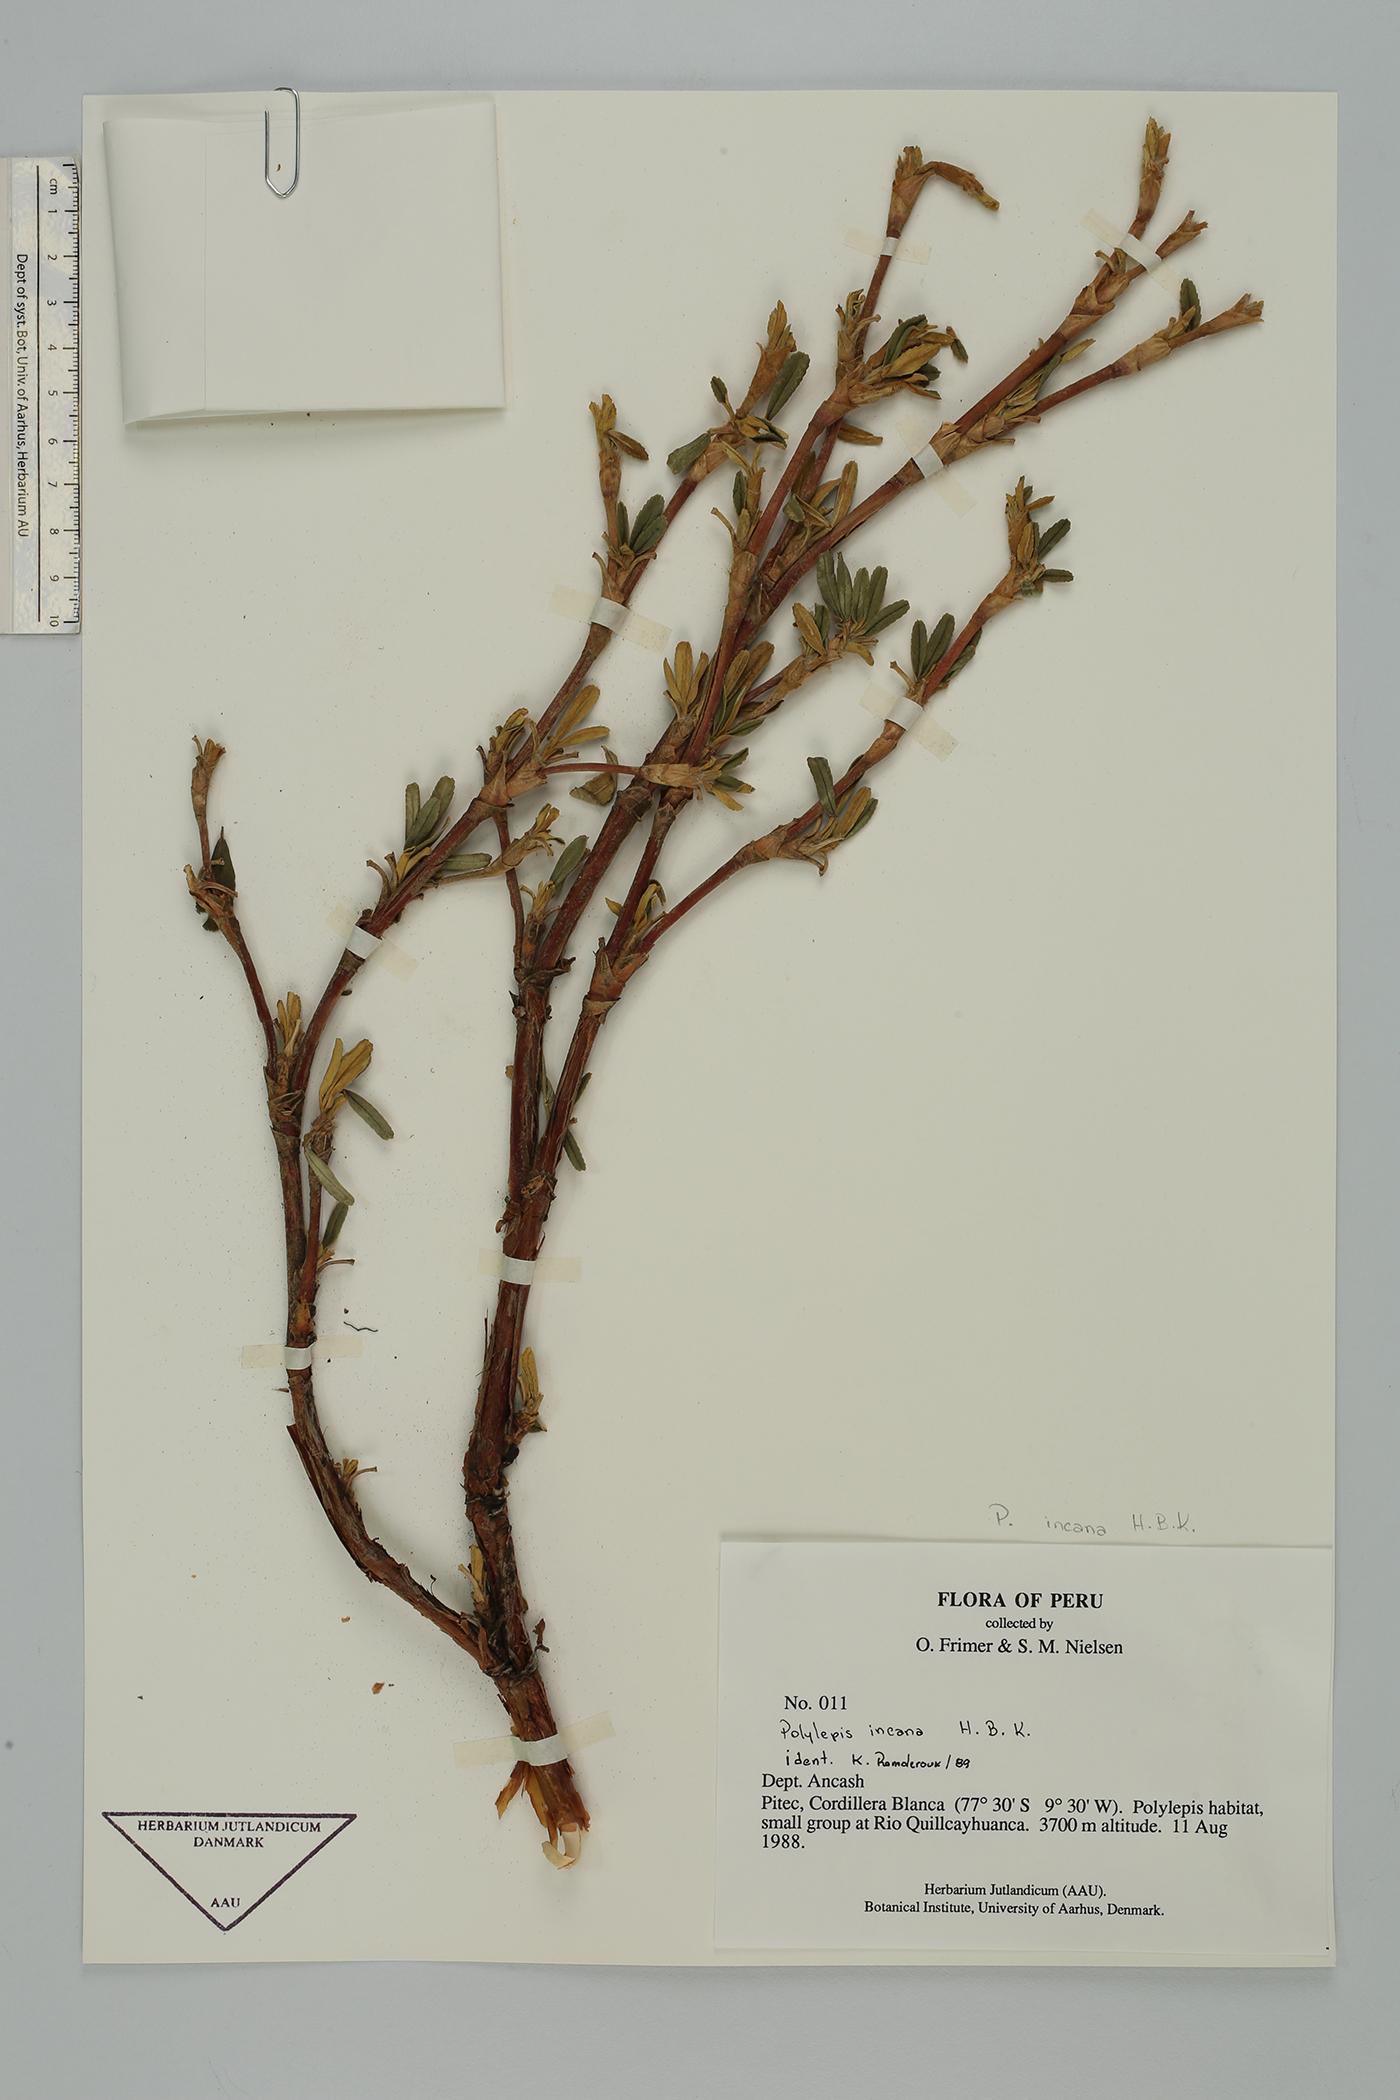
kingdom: Plantae
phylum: Tracheophyta
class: Magnoliopsida
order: Rosales
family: Rosaceae
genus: Polylepis
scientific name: Polylepis incana
